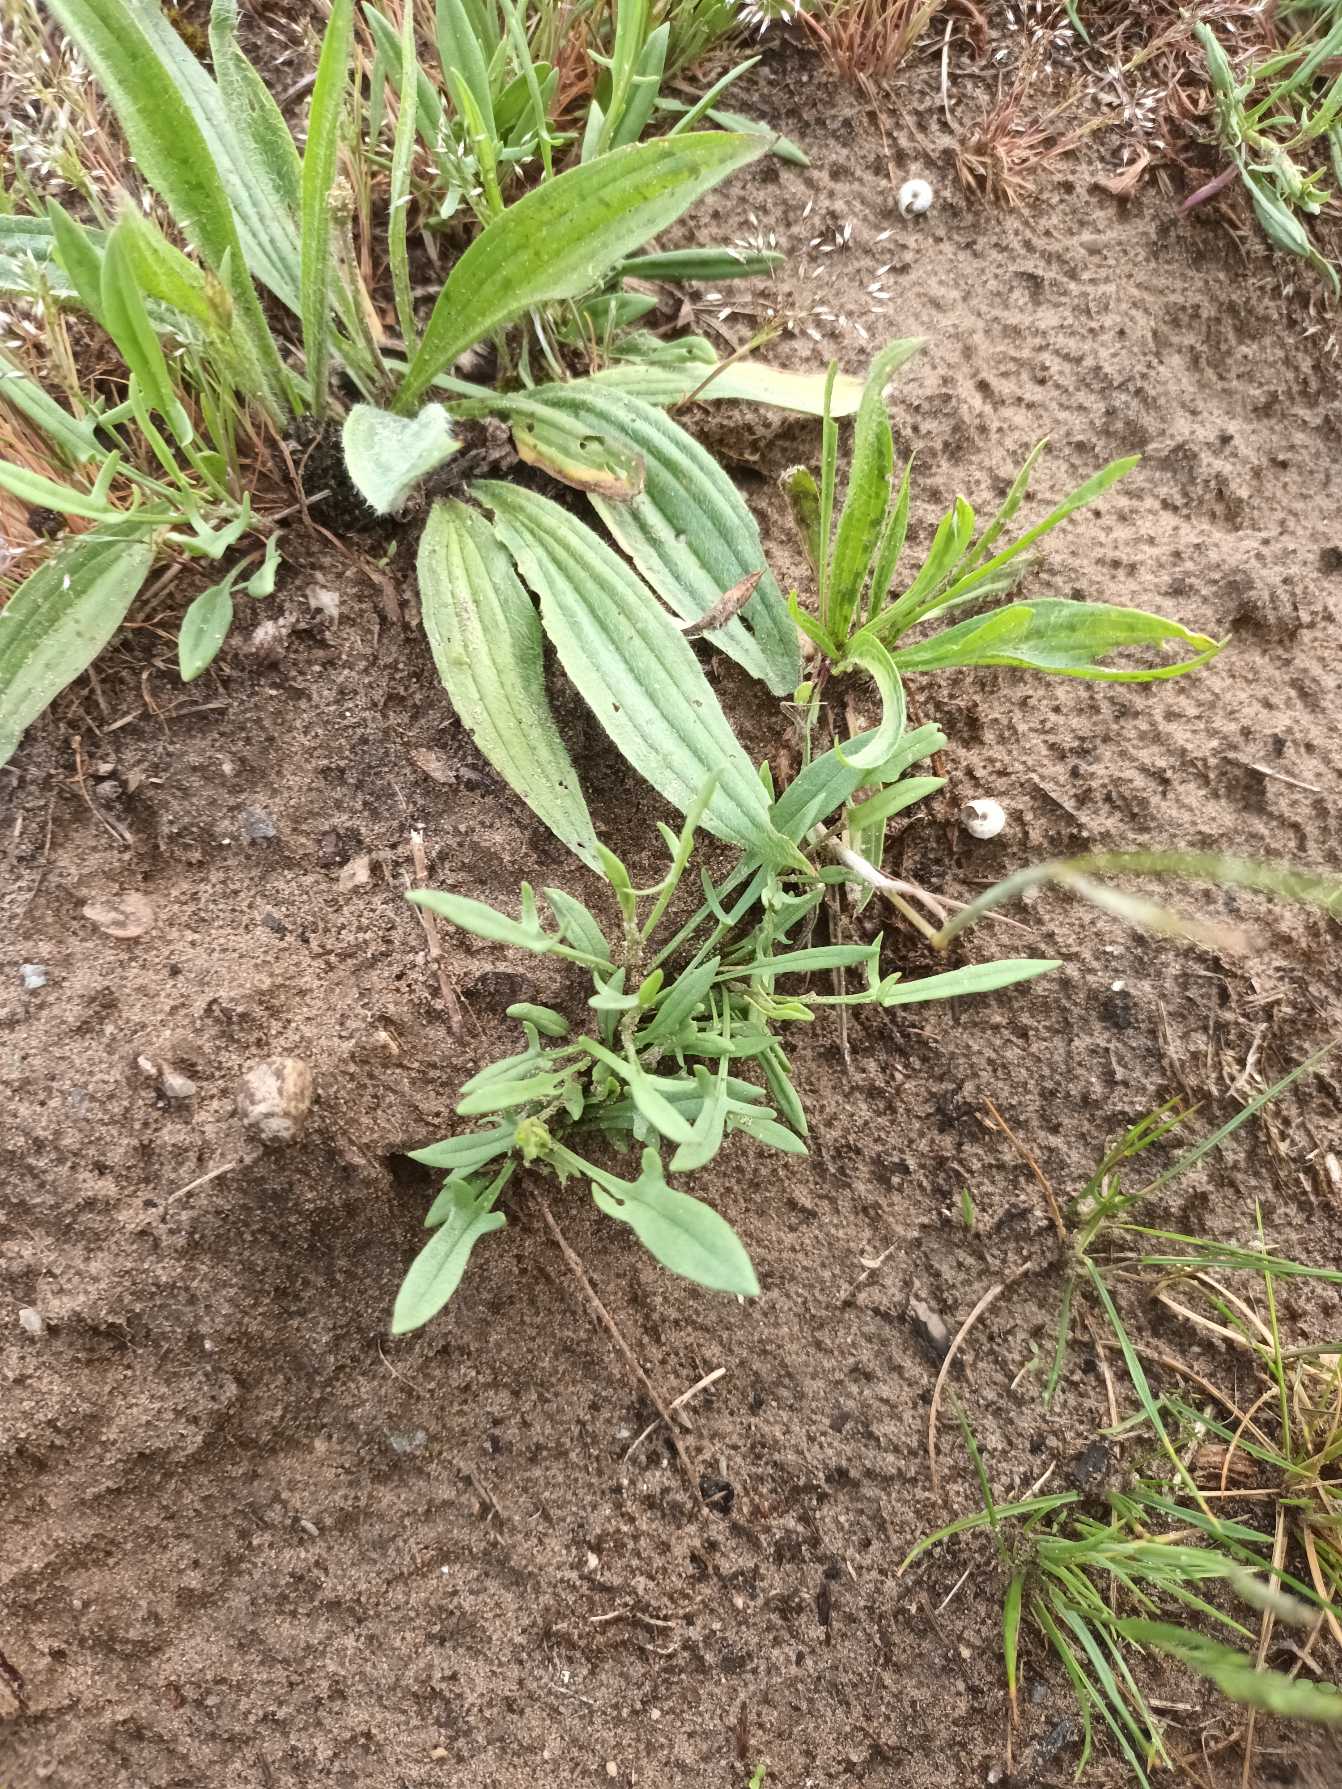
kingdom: Plantae
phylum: Tracheophyta
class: Magnoliopsida
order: Caryophyllales
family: Polygonaceae
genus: Rumex
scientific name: Rumex acetosella
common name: Rødknæ
